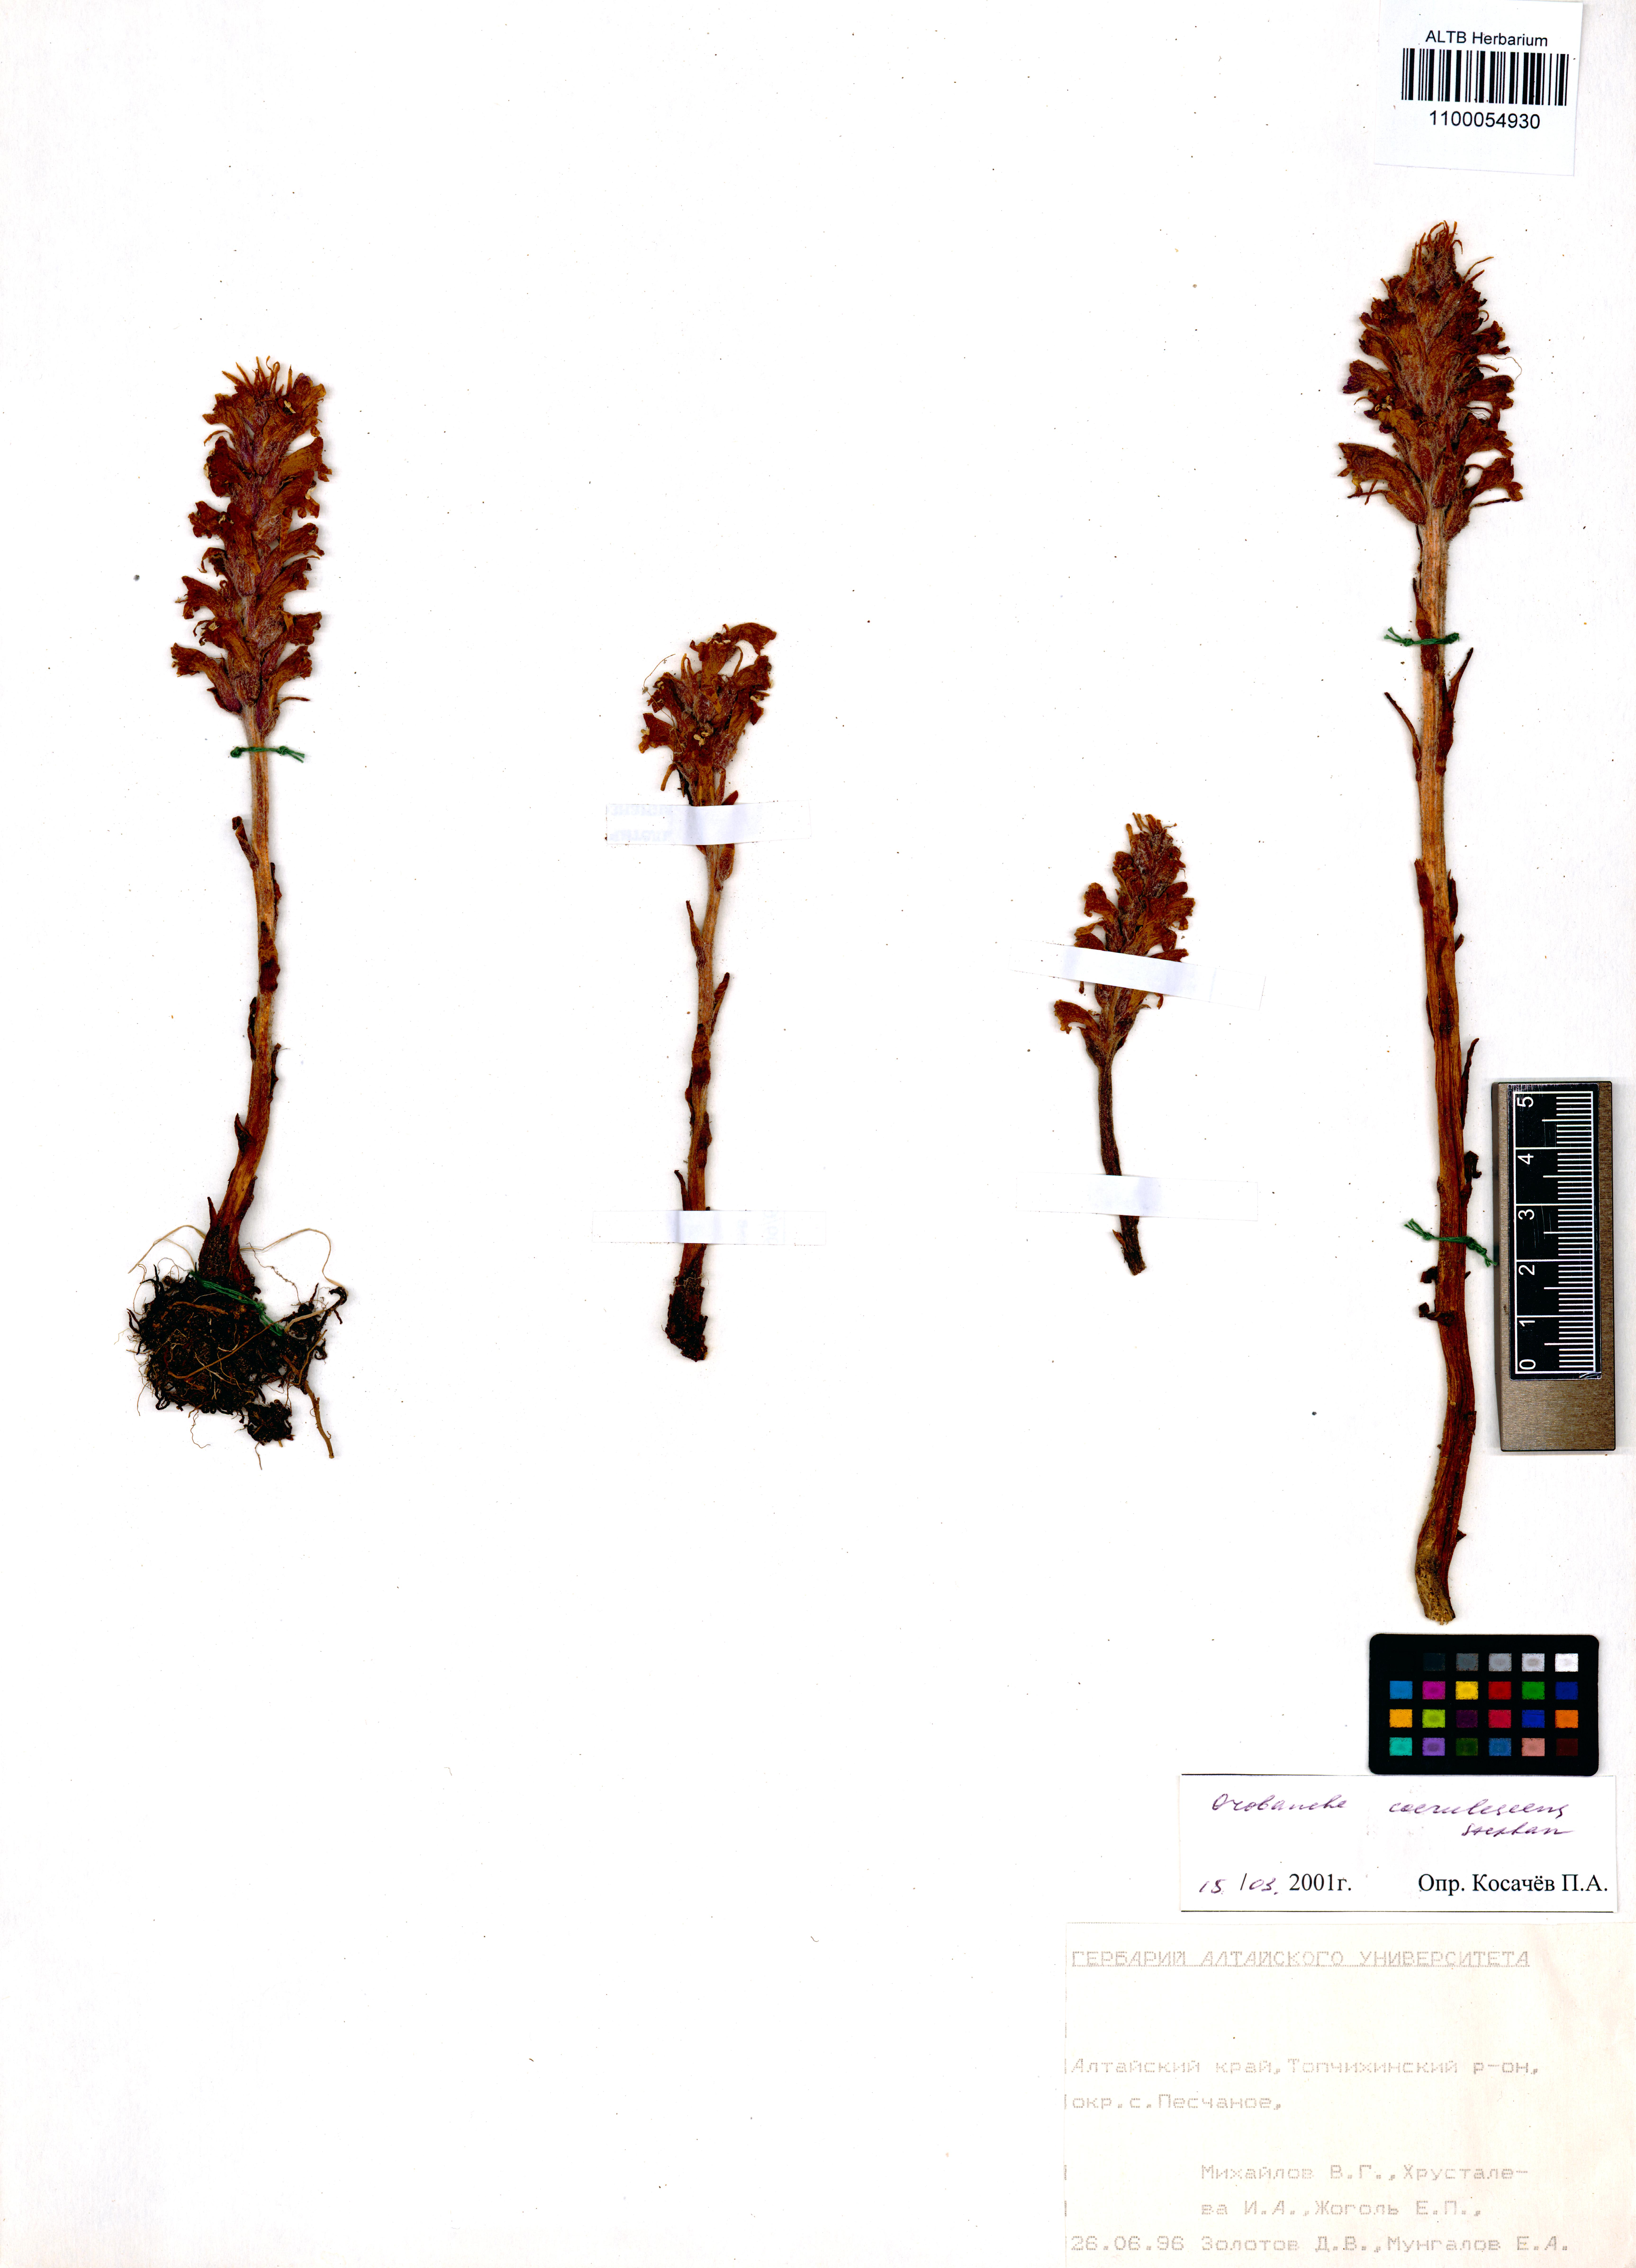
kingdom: Plantae
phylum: Tracheophyta
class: Magnoliopsida
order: Lamiales
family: Orobanchaceae
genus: Orobanche
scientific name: Orobanche coerulescens
